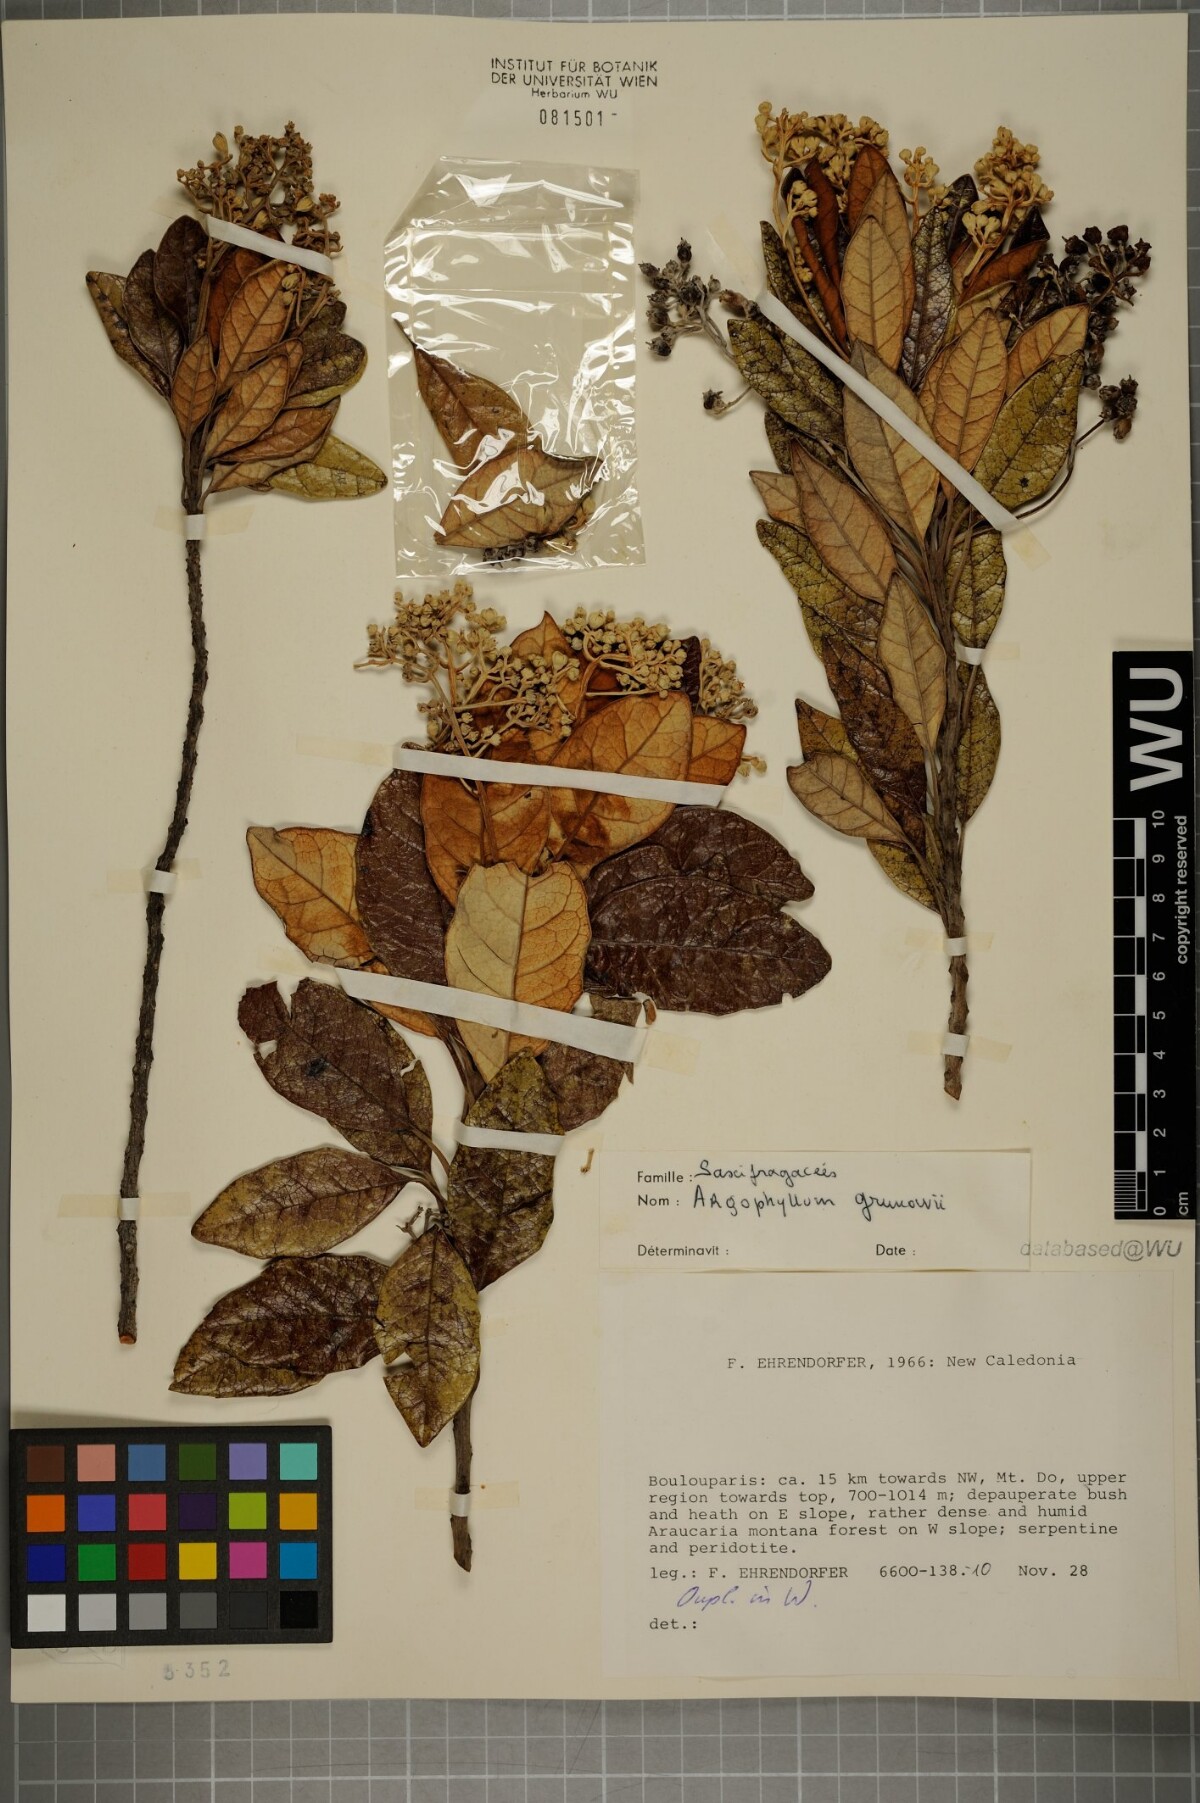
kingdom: Plantae
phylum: Tracheophyta
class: Magnoliopsida
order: Asterales
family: Argophyllaceae
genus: Argophyllum
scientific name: Argophyllum grunowii
